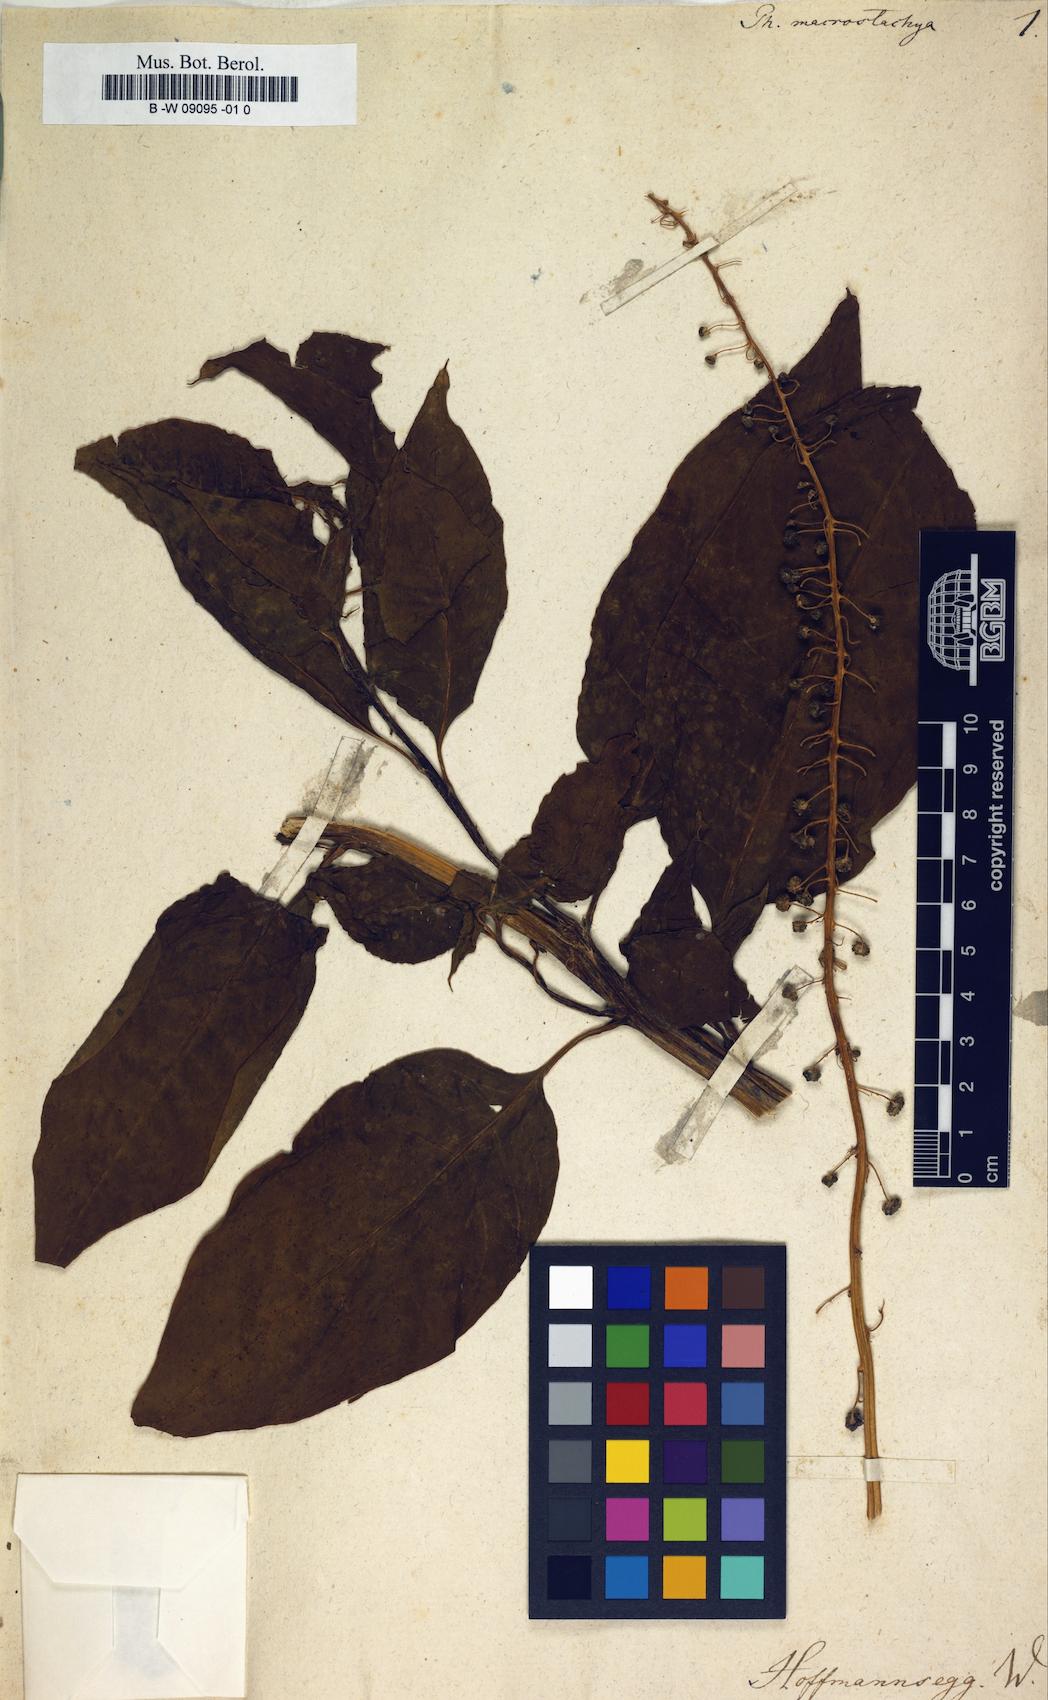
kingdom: Plantae
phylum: Tracheophyta
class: Magnoliopsida
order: Caryophyllales
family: Phytolaccaceae
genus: Phytolacca
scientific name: Phytolacca rivinoides
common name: Venezuelan pokeweed
